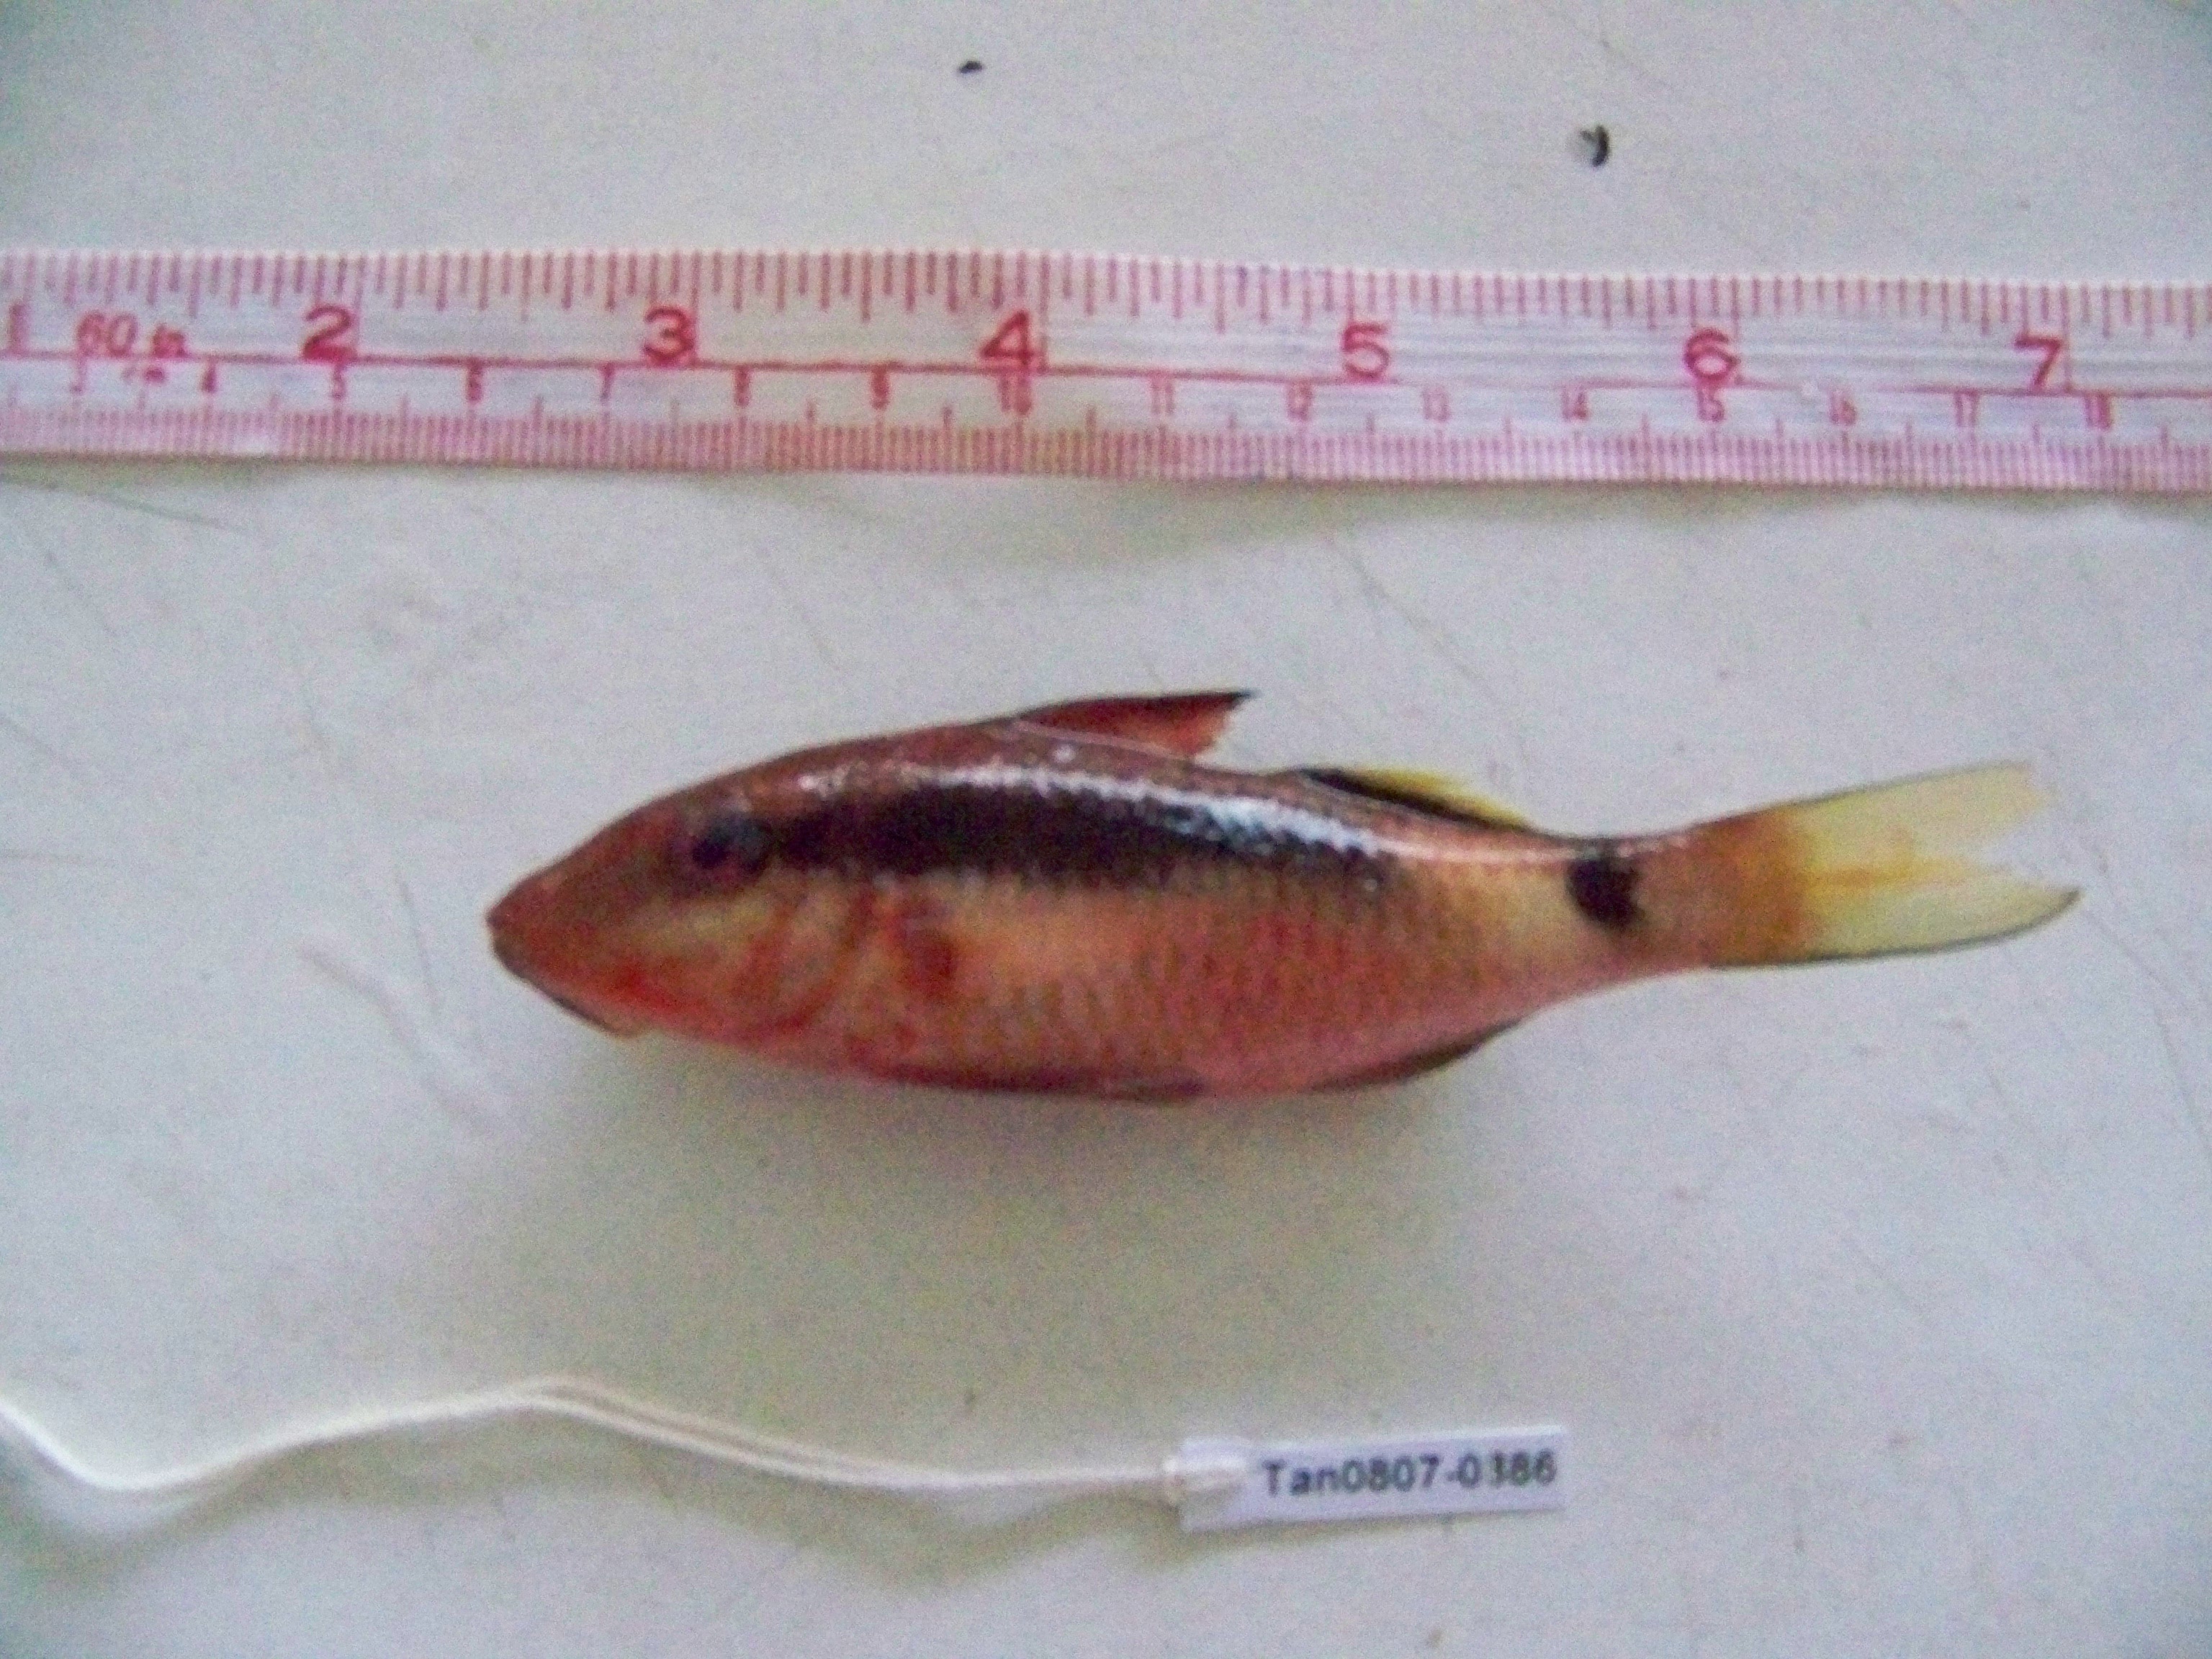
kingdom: Animalia
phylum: Chordata
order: Perciformes
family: Mullidae
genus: Parupeneus
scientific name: Parupeneus macronemus
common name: Long-barbel goatfish
